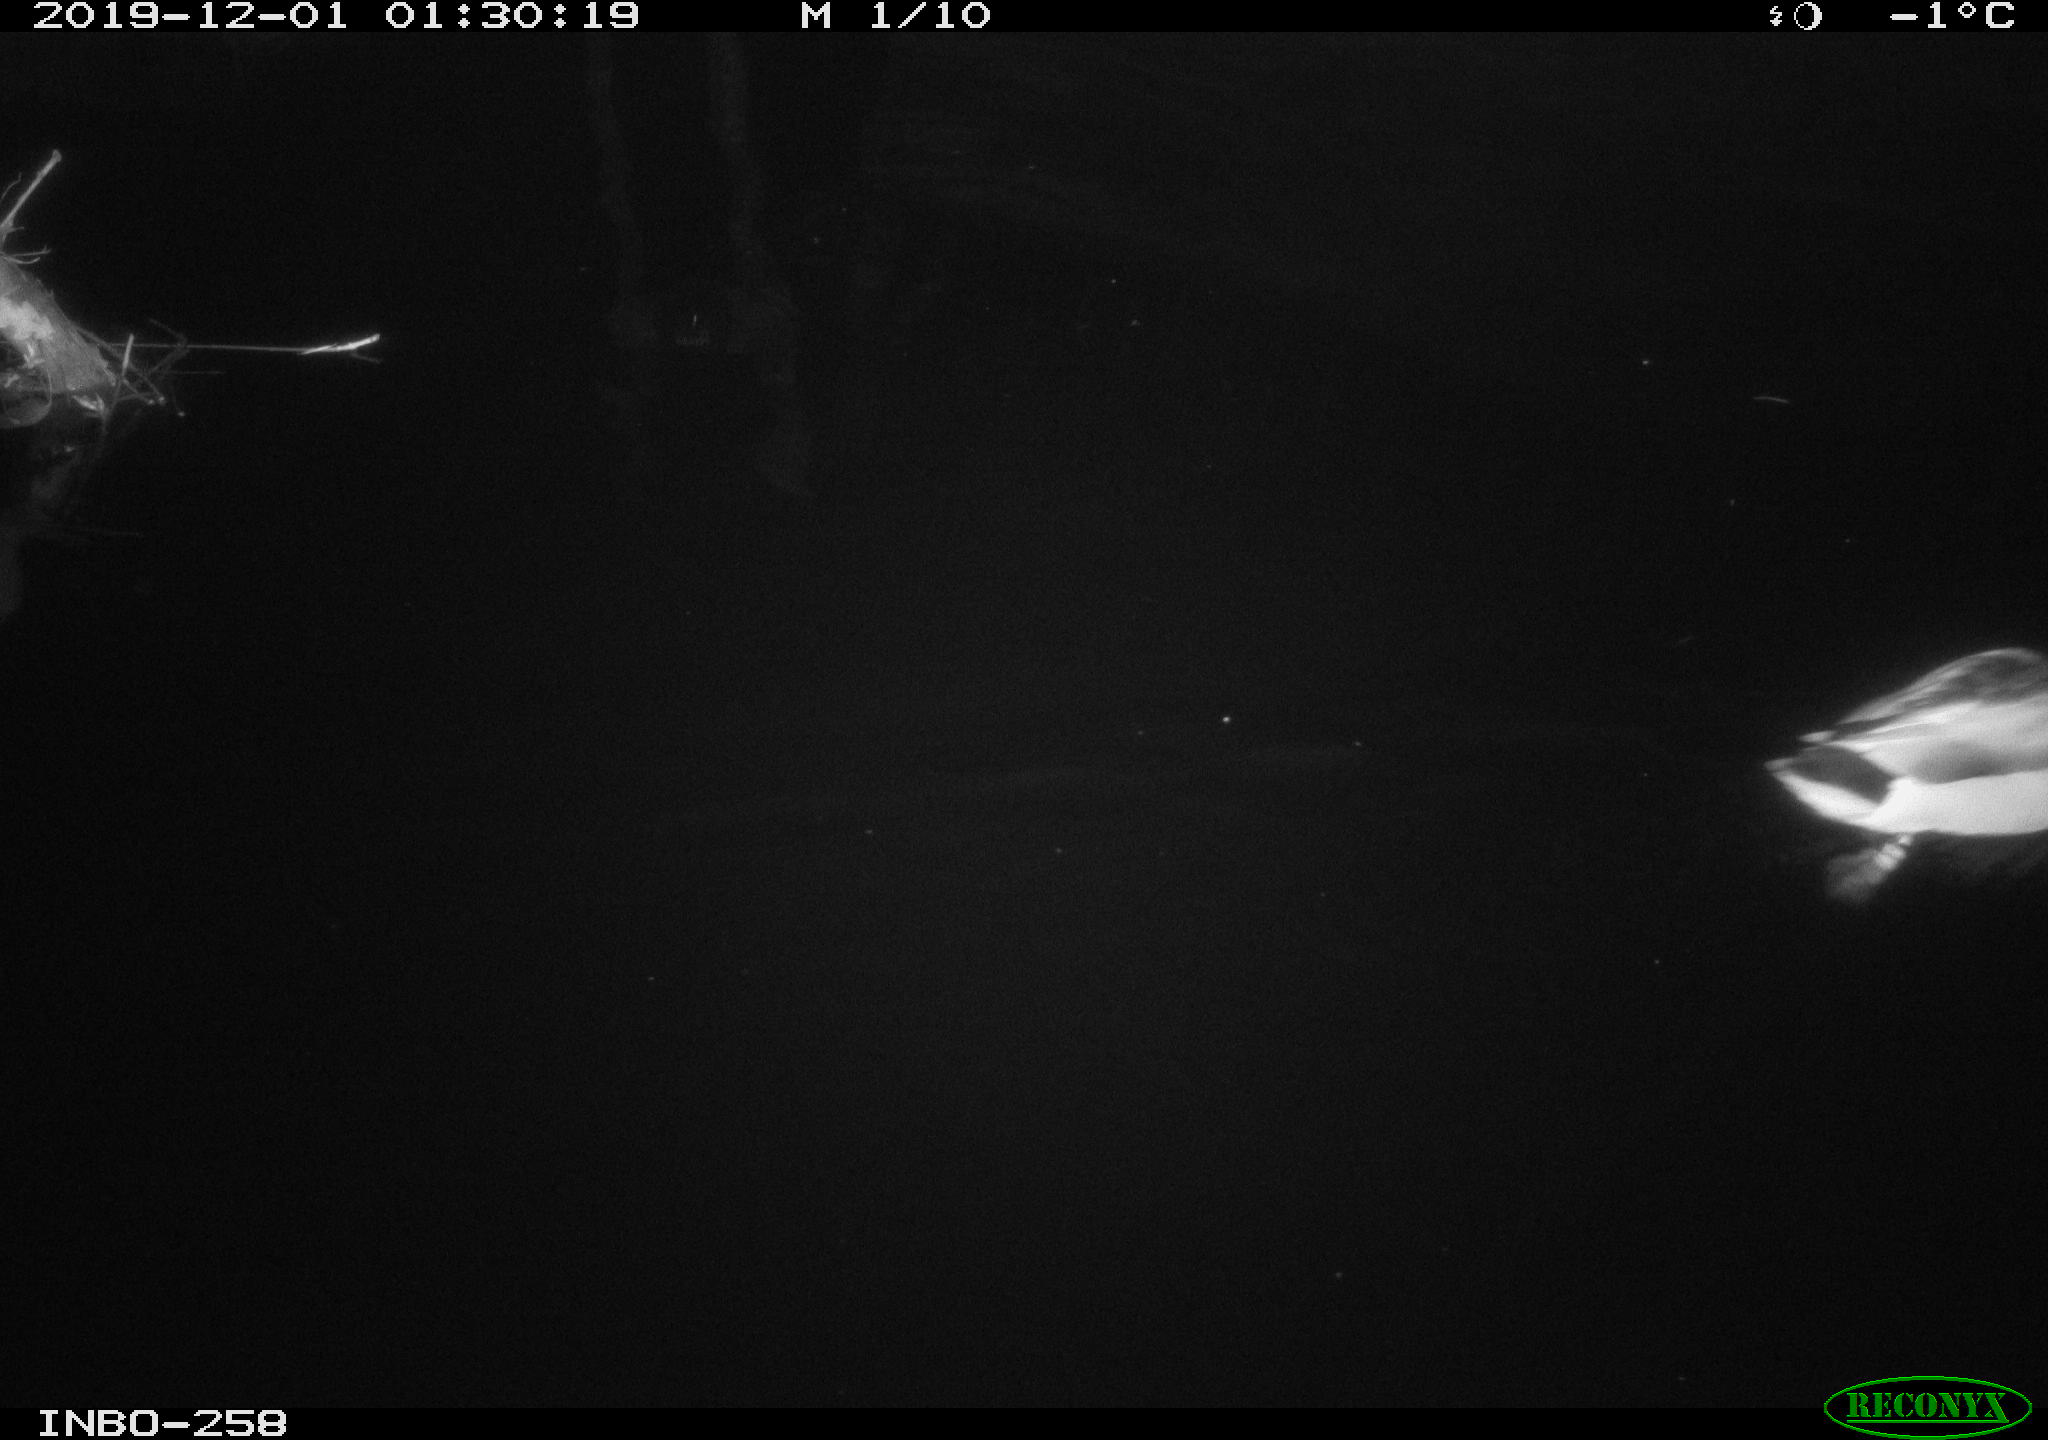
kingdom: Animalia
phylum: Chordata
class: Aves
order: Anseriformes
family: Anatidae
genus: Anas
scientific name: Anas platyrhynchos
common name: Mallard
